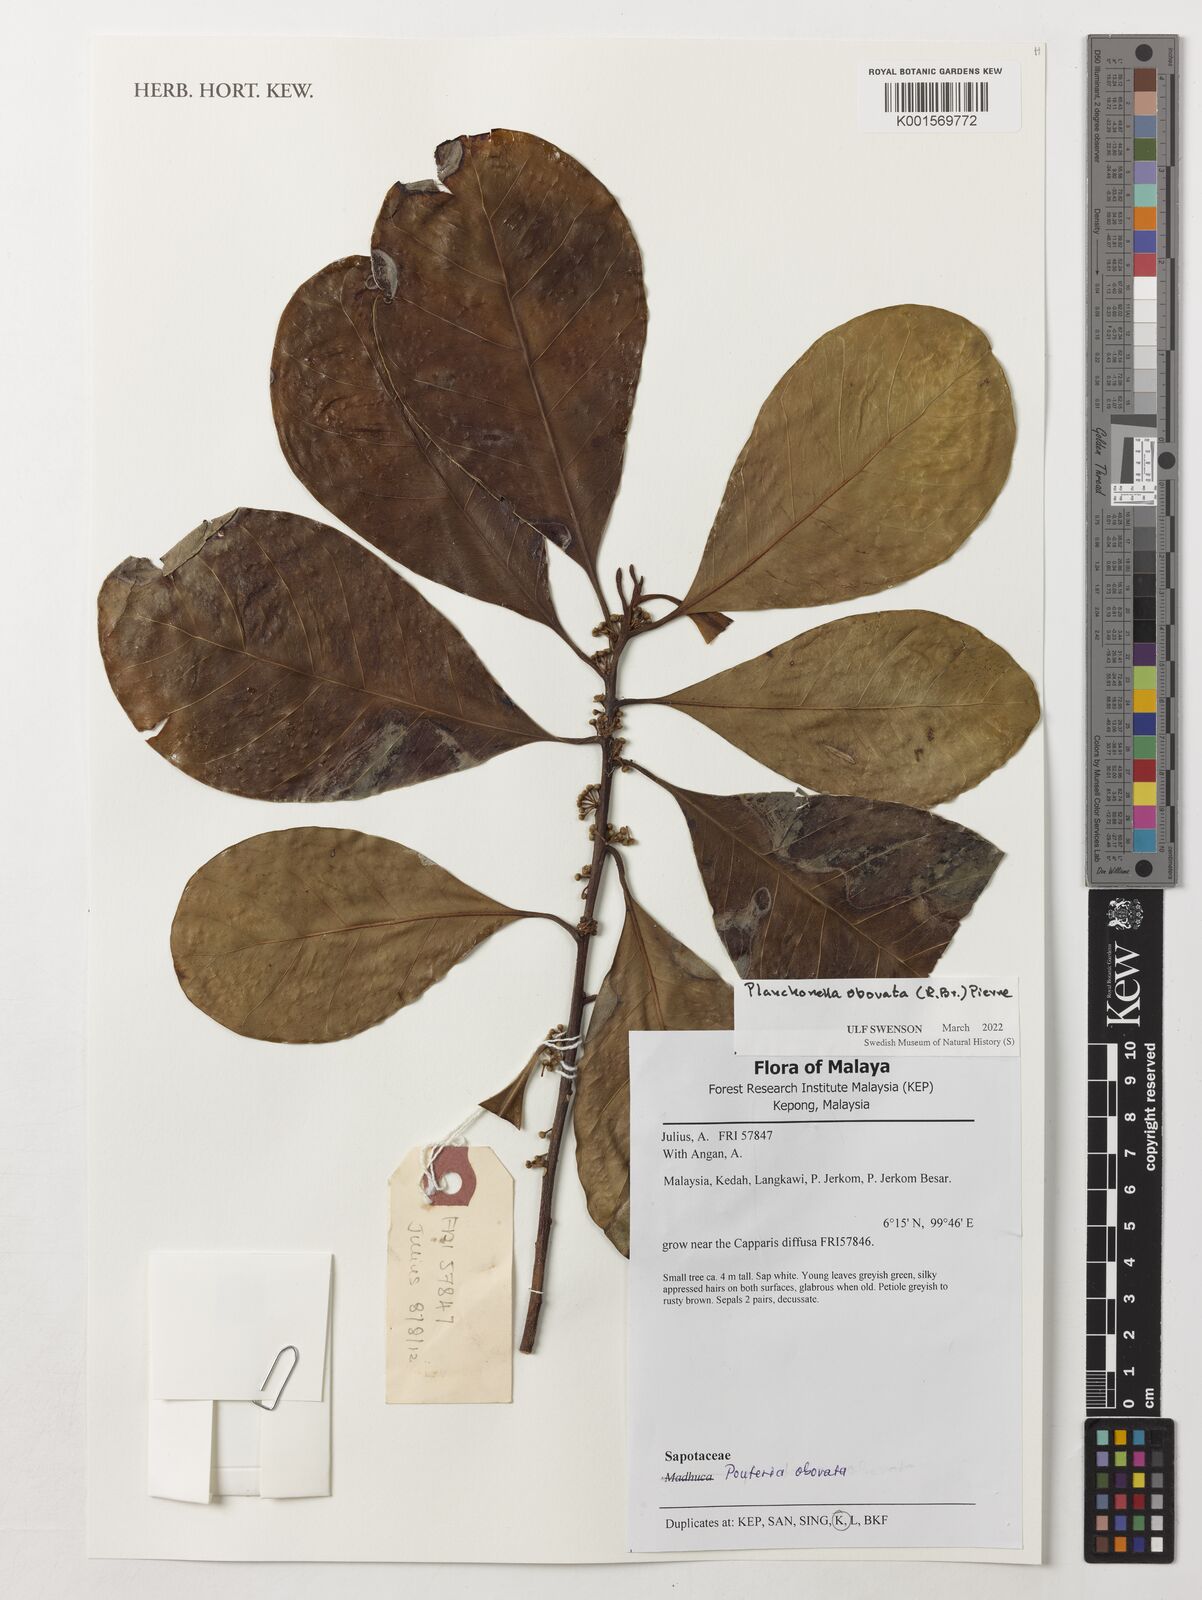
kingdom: Plantae
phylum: Tracheophyta
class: Magnoliopsida
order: Ericales
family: Sapotaceae
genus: Planchonella
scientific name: Planchonella obovata
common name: Black-ash
